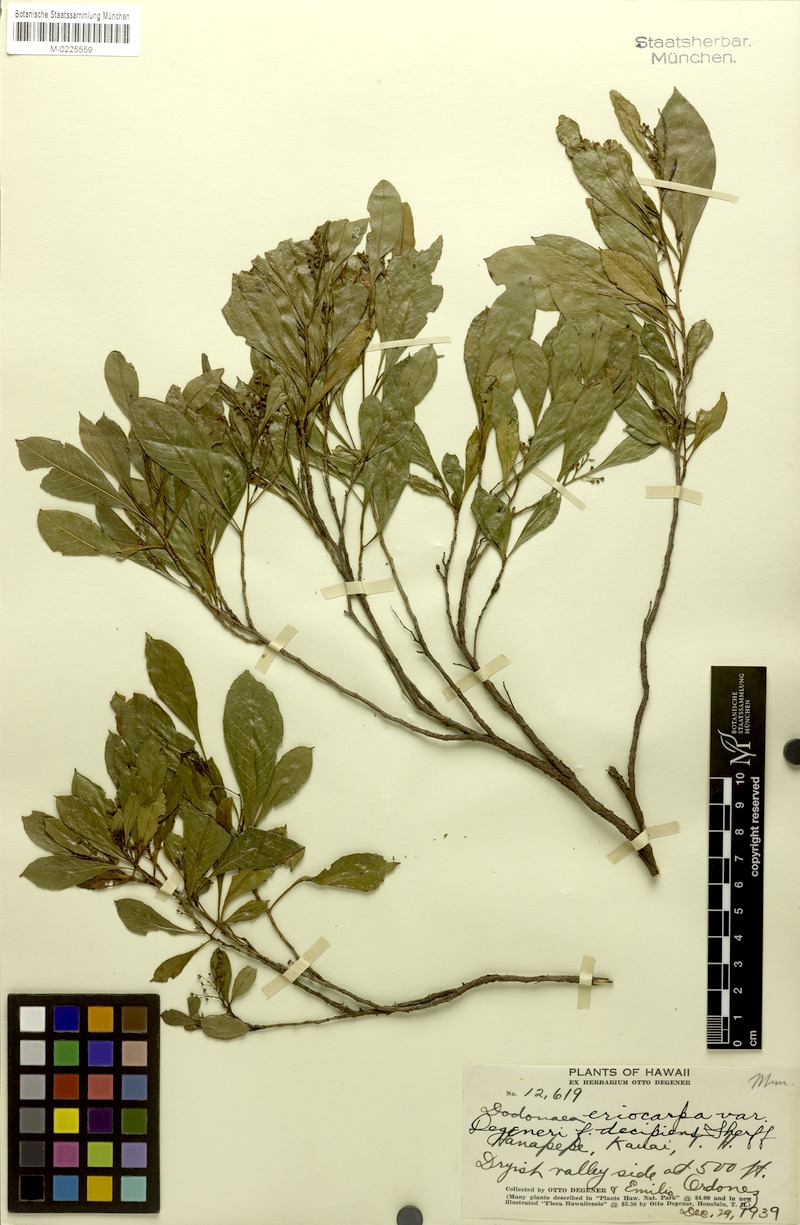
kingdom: Plantae
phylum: Tracheophyta
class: Magnoliopsida
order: Sapindales
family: Sapindaceae
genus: Dodonaea
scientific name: Dodonaea viscosa
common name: Hopbush
